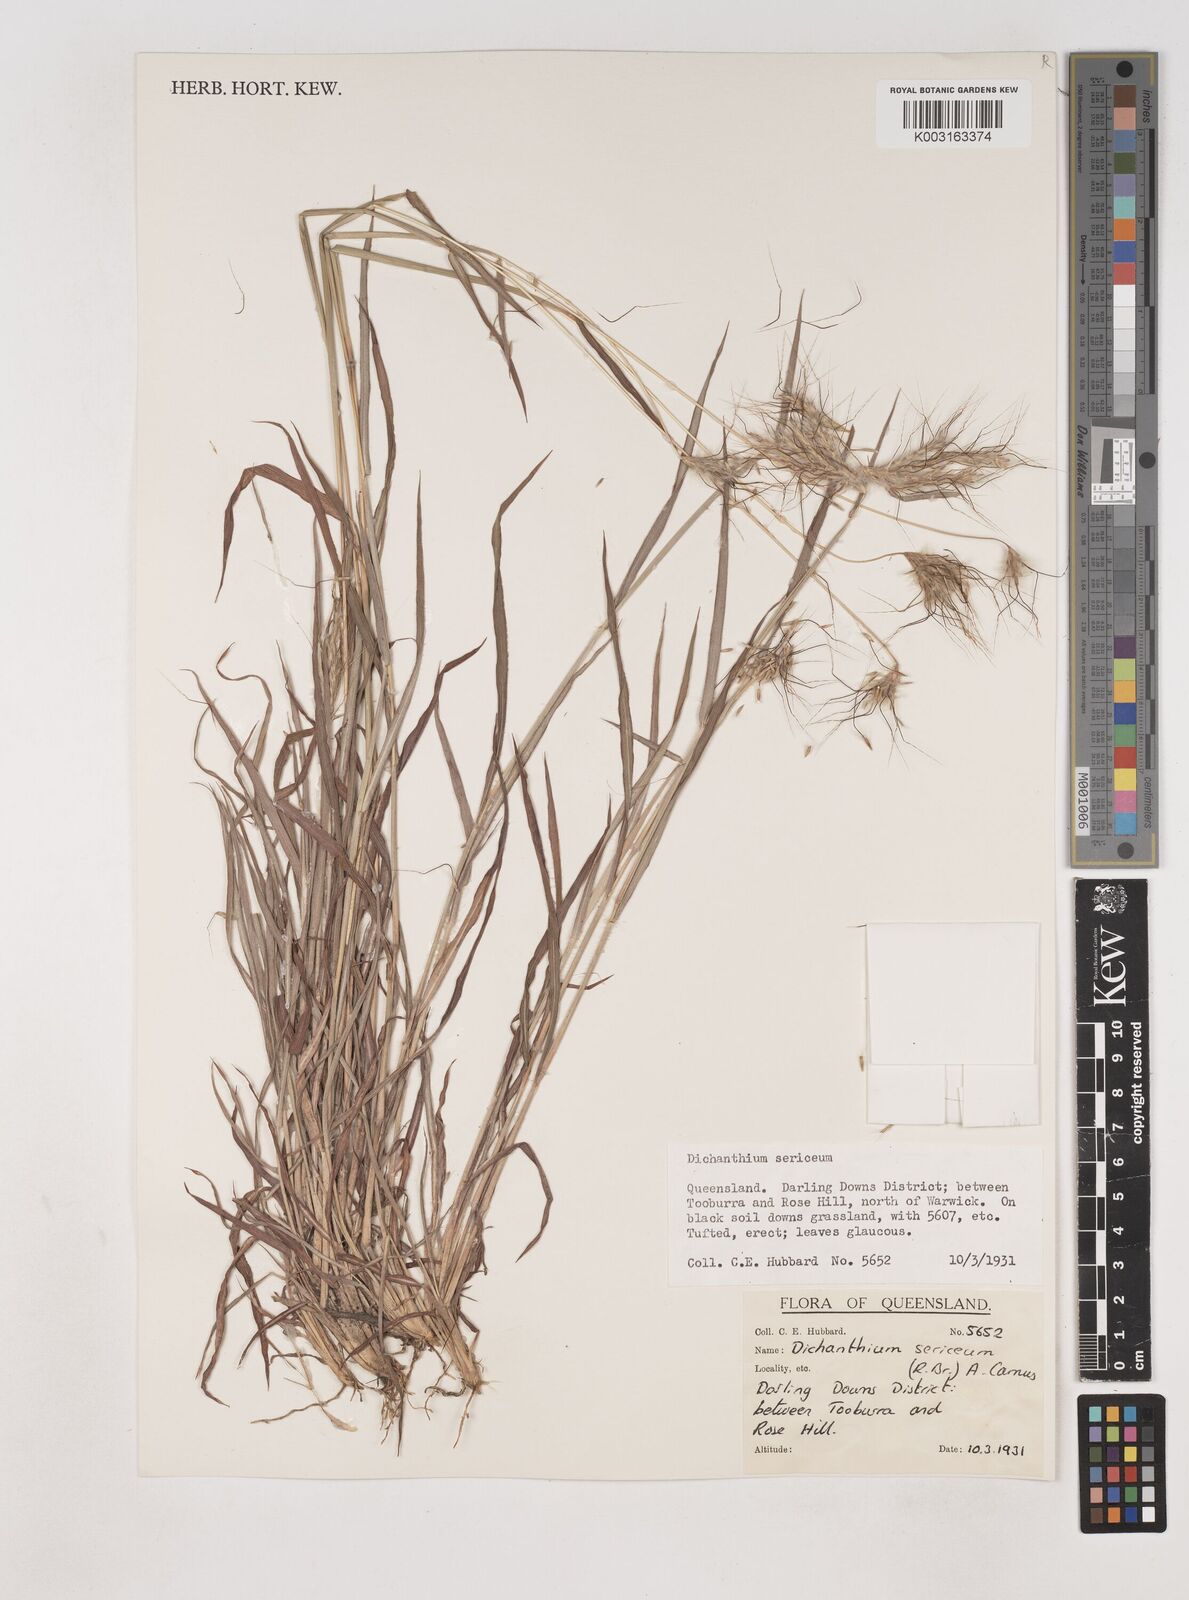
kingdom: Plantae
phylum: Tracheophyta
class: Liliopsida
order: Poales
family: Poaceae
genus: Dichanthium
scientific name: Dichanthium sericeum
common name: Silky bluestem
